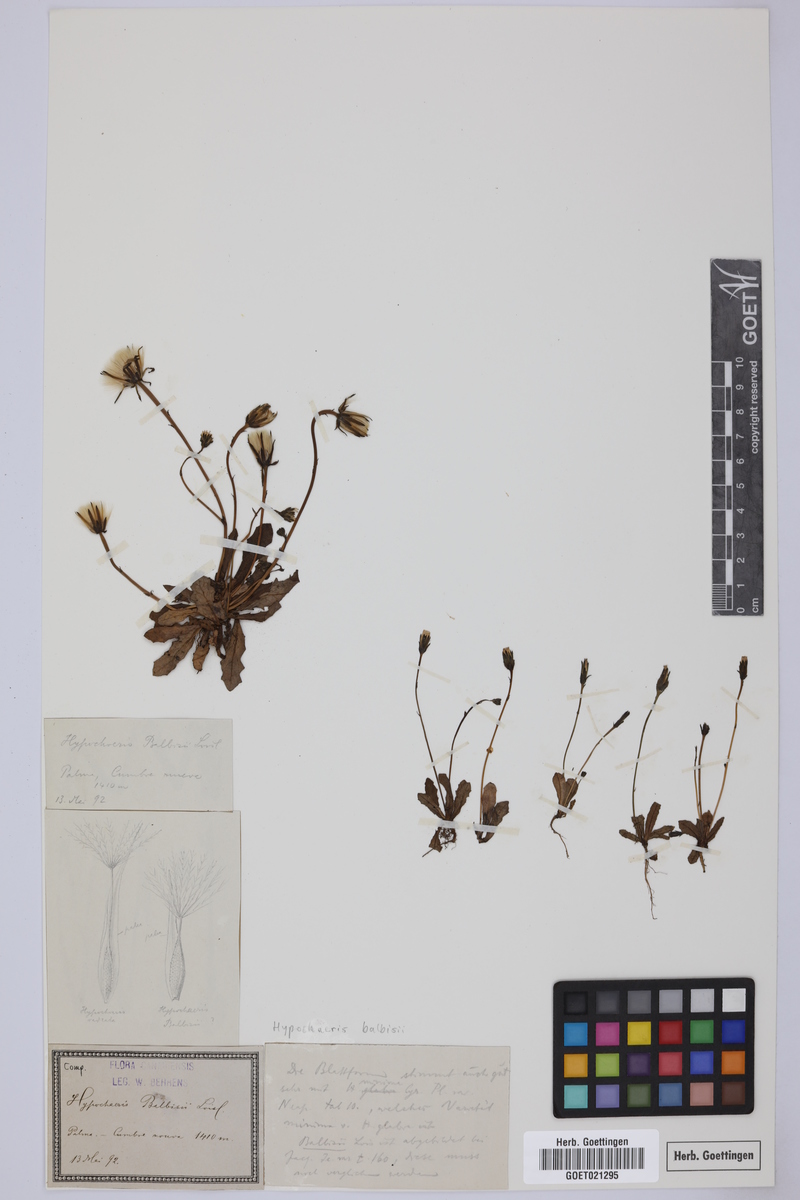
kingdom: Plantae
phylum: Tracheophyta
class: Magnoliopsida
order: Asterales
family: Asteraceae
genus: Hypochaeris
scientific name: Hypochaeris balbisii
